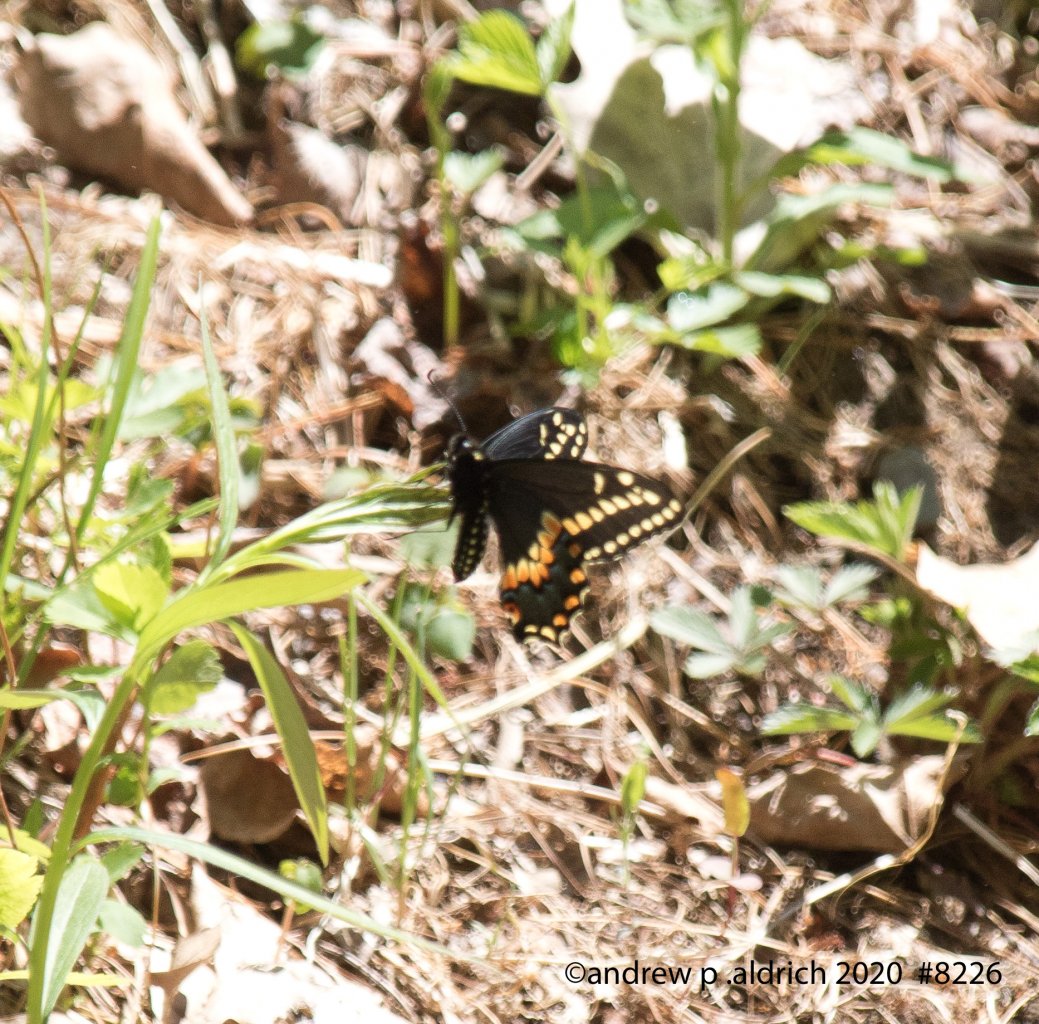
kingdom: Animalia
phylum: Arthropoda
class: Insecta
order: Lepidoptera
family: Papilionidae
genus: Papilio
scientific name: Papilio polyxenes
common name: Black Swallowtail
